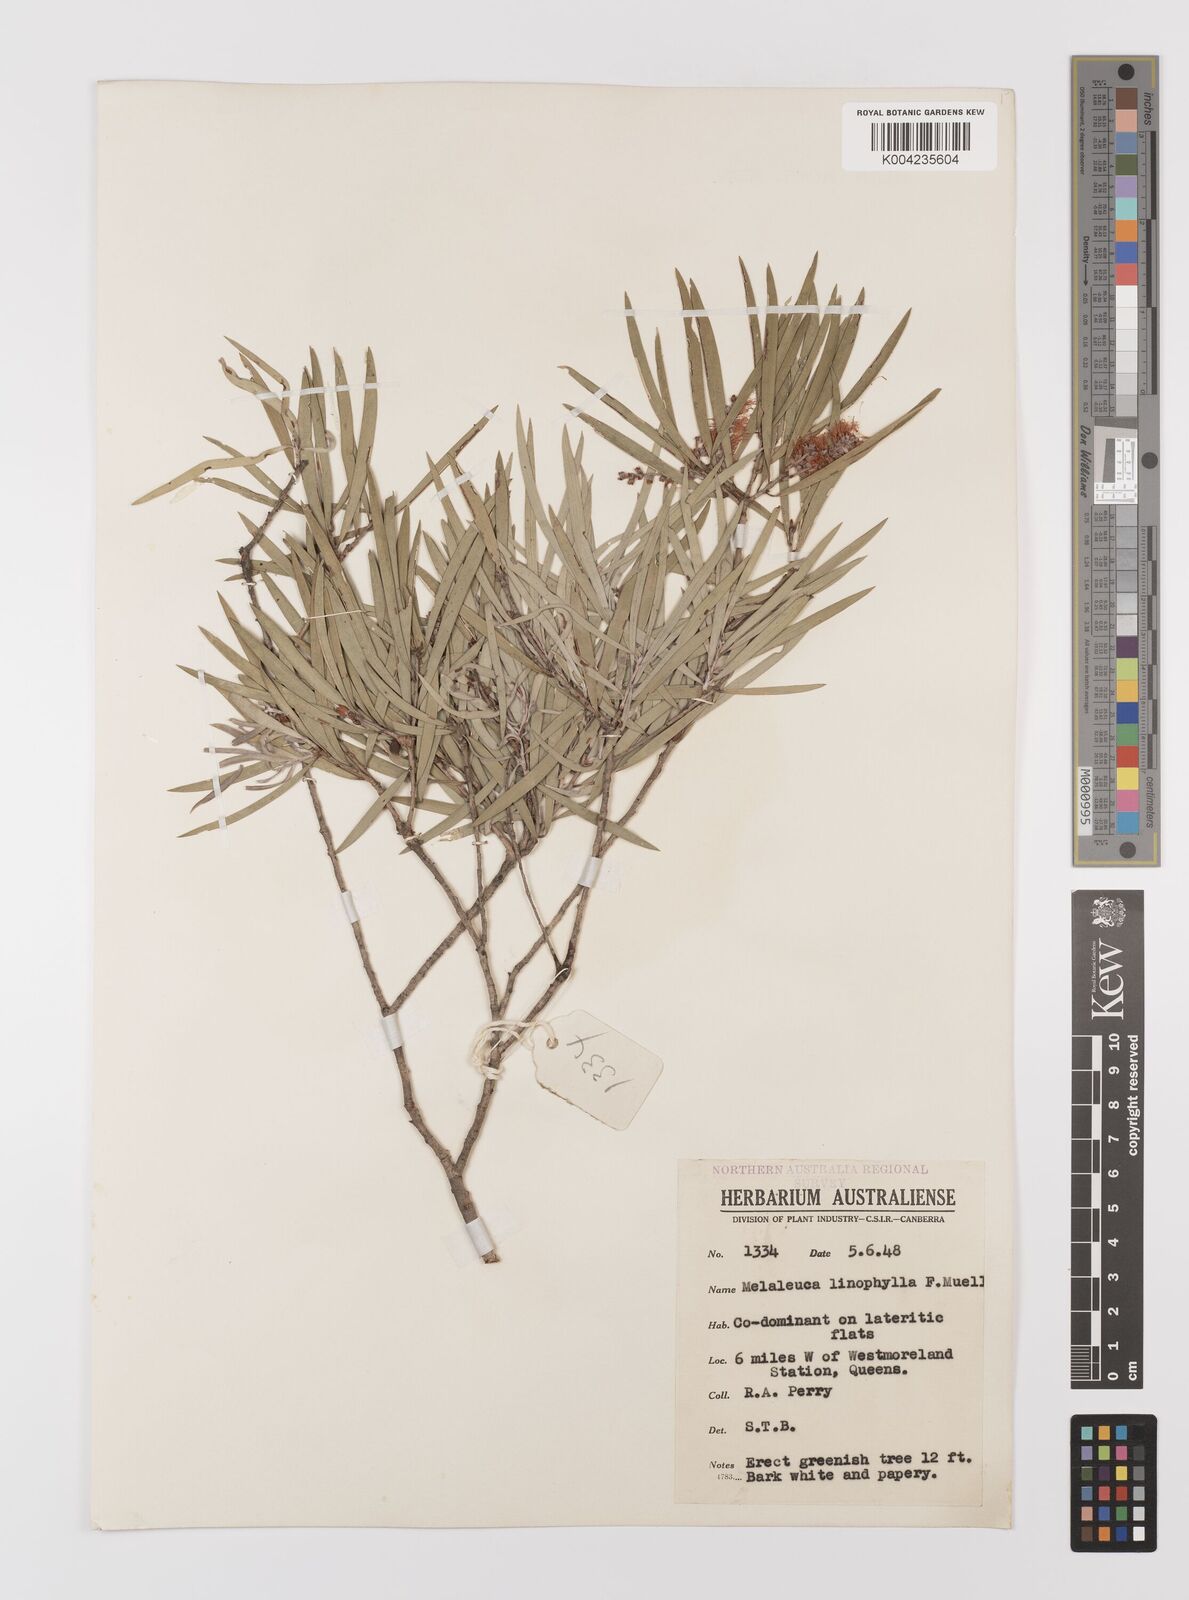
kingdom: Plantae
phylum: Tracheophyta
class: Magnoliopsida
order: Myrtales
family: Myrtaceae
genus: Melaleuca
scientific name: Melaleuca linophylla
